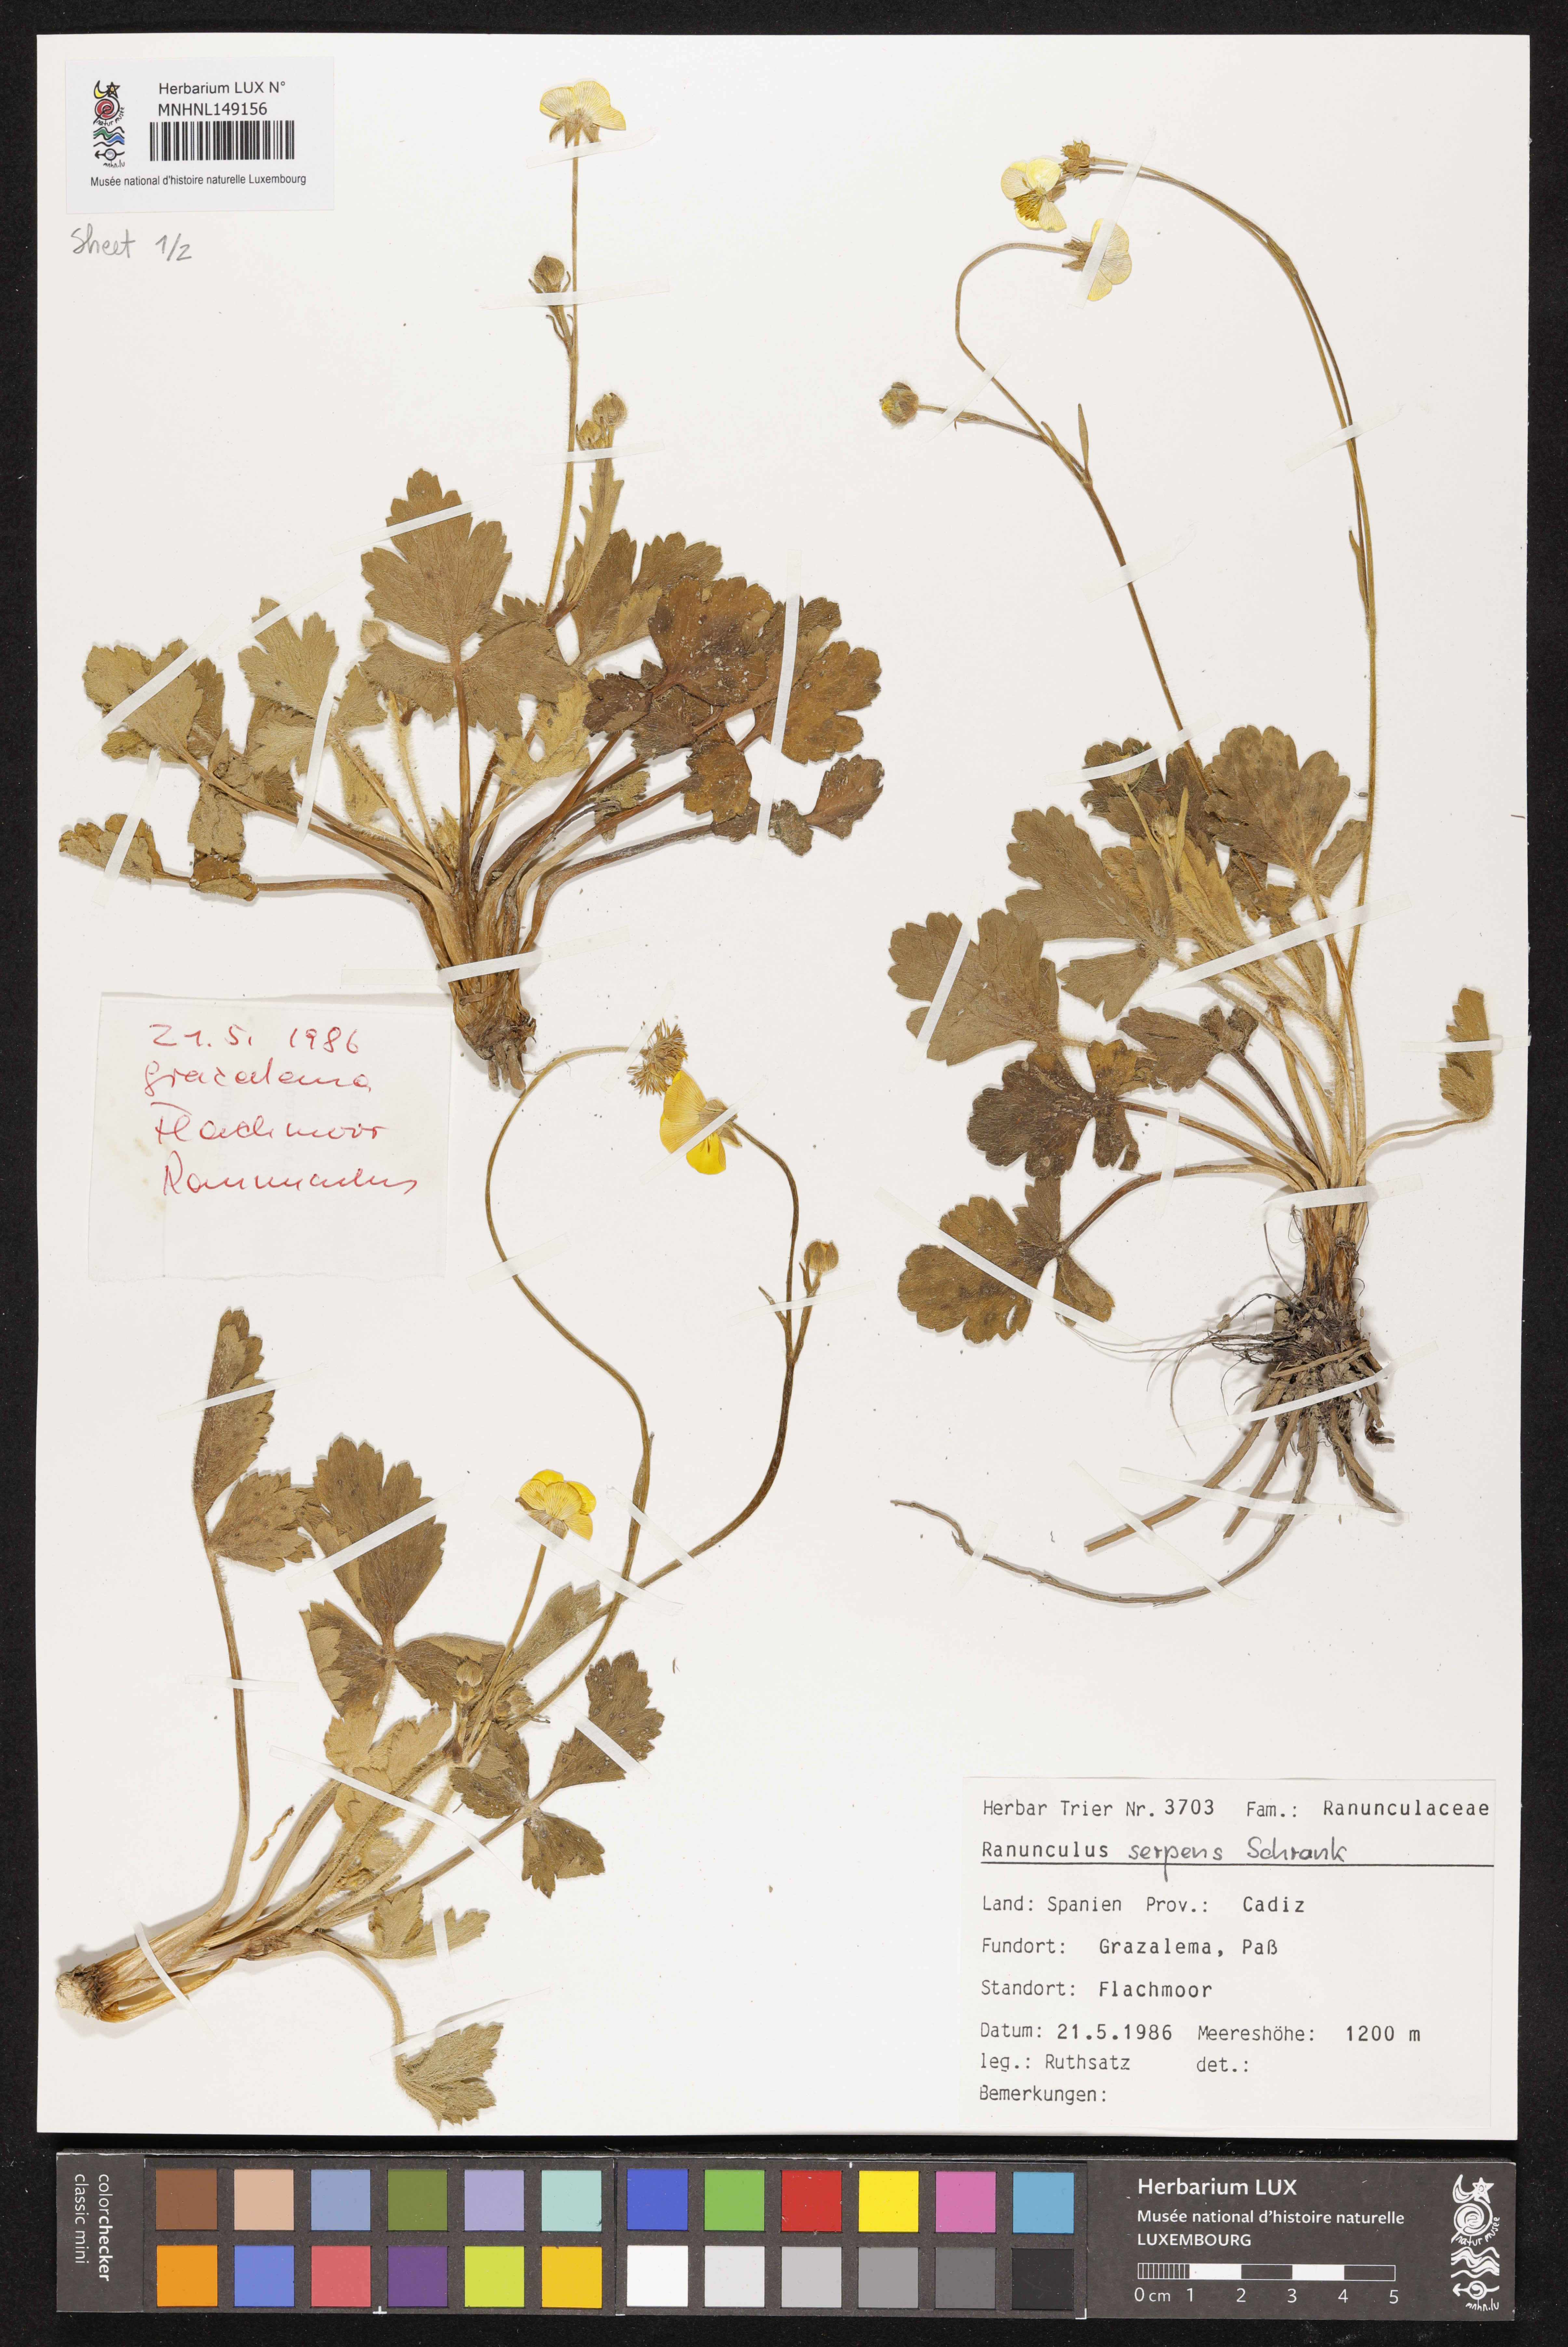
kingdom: Plantae
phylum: Tracheophyta
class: Magnoliopsida
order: Ranunculales
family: Ranunculaceae
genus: Ranunculus
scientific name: Ranunculus polyanthemos
